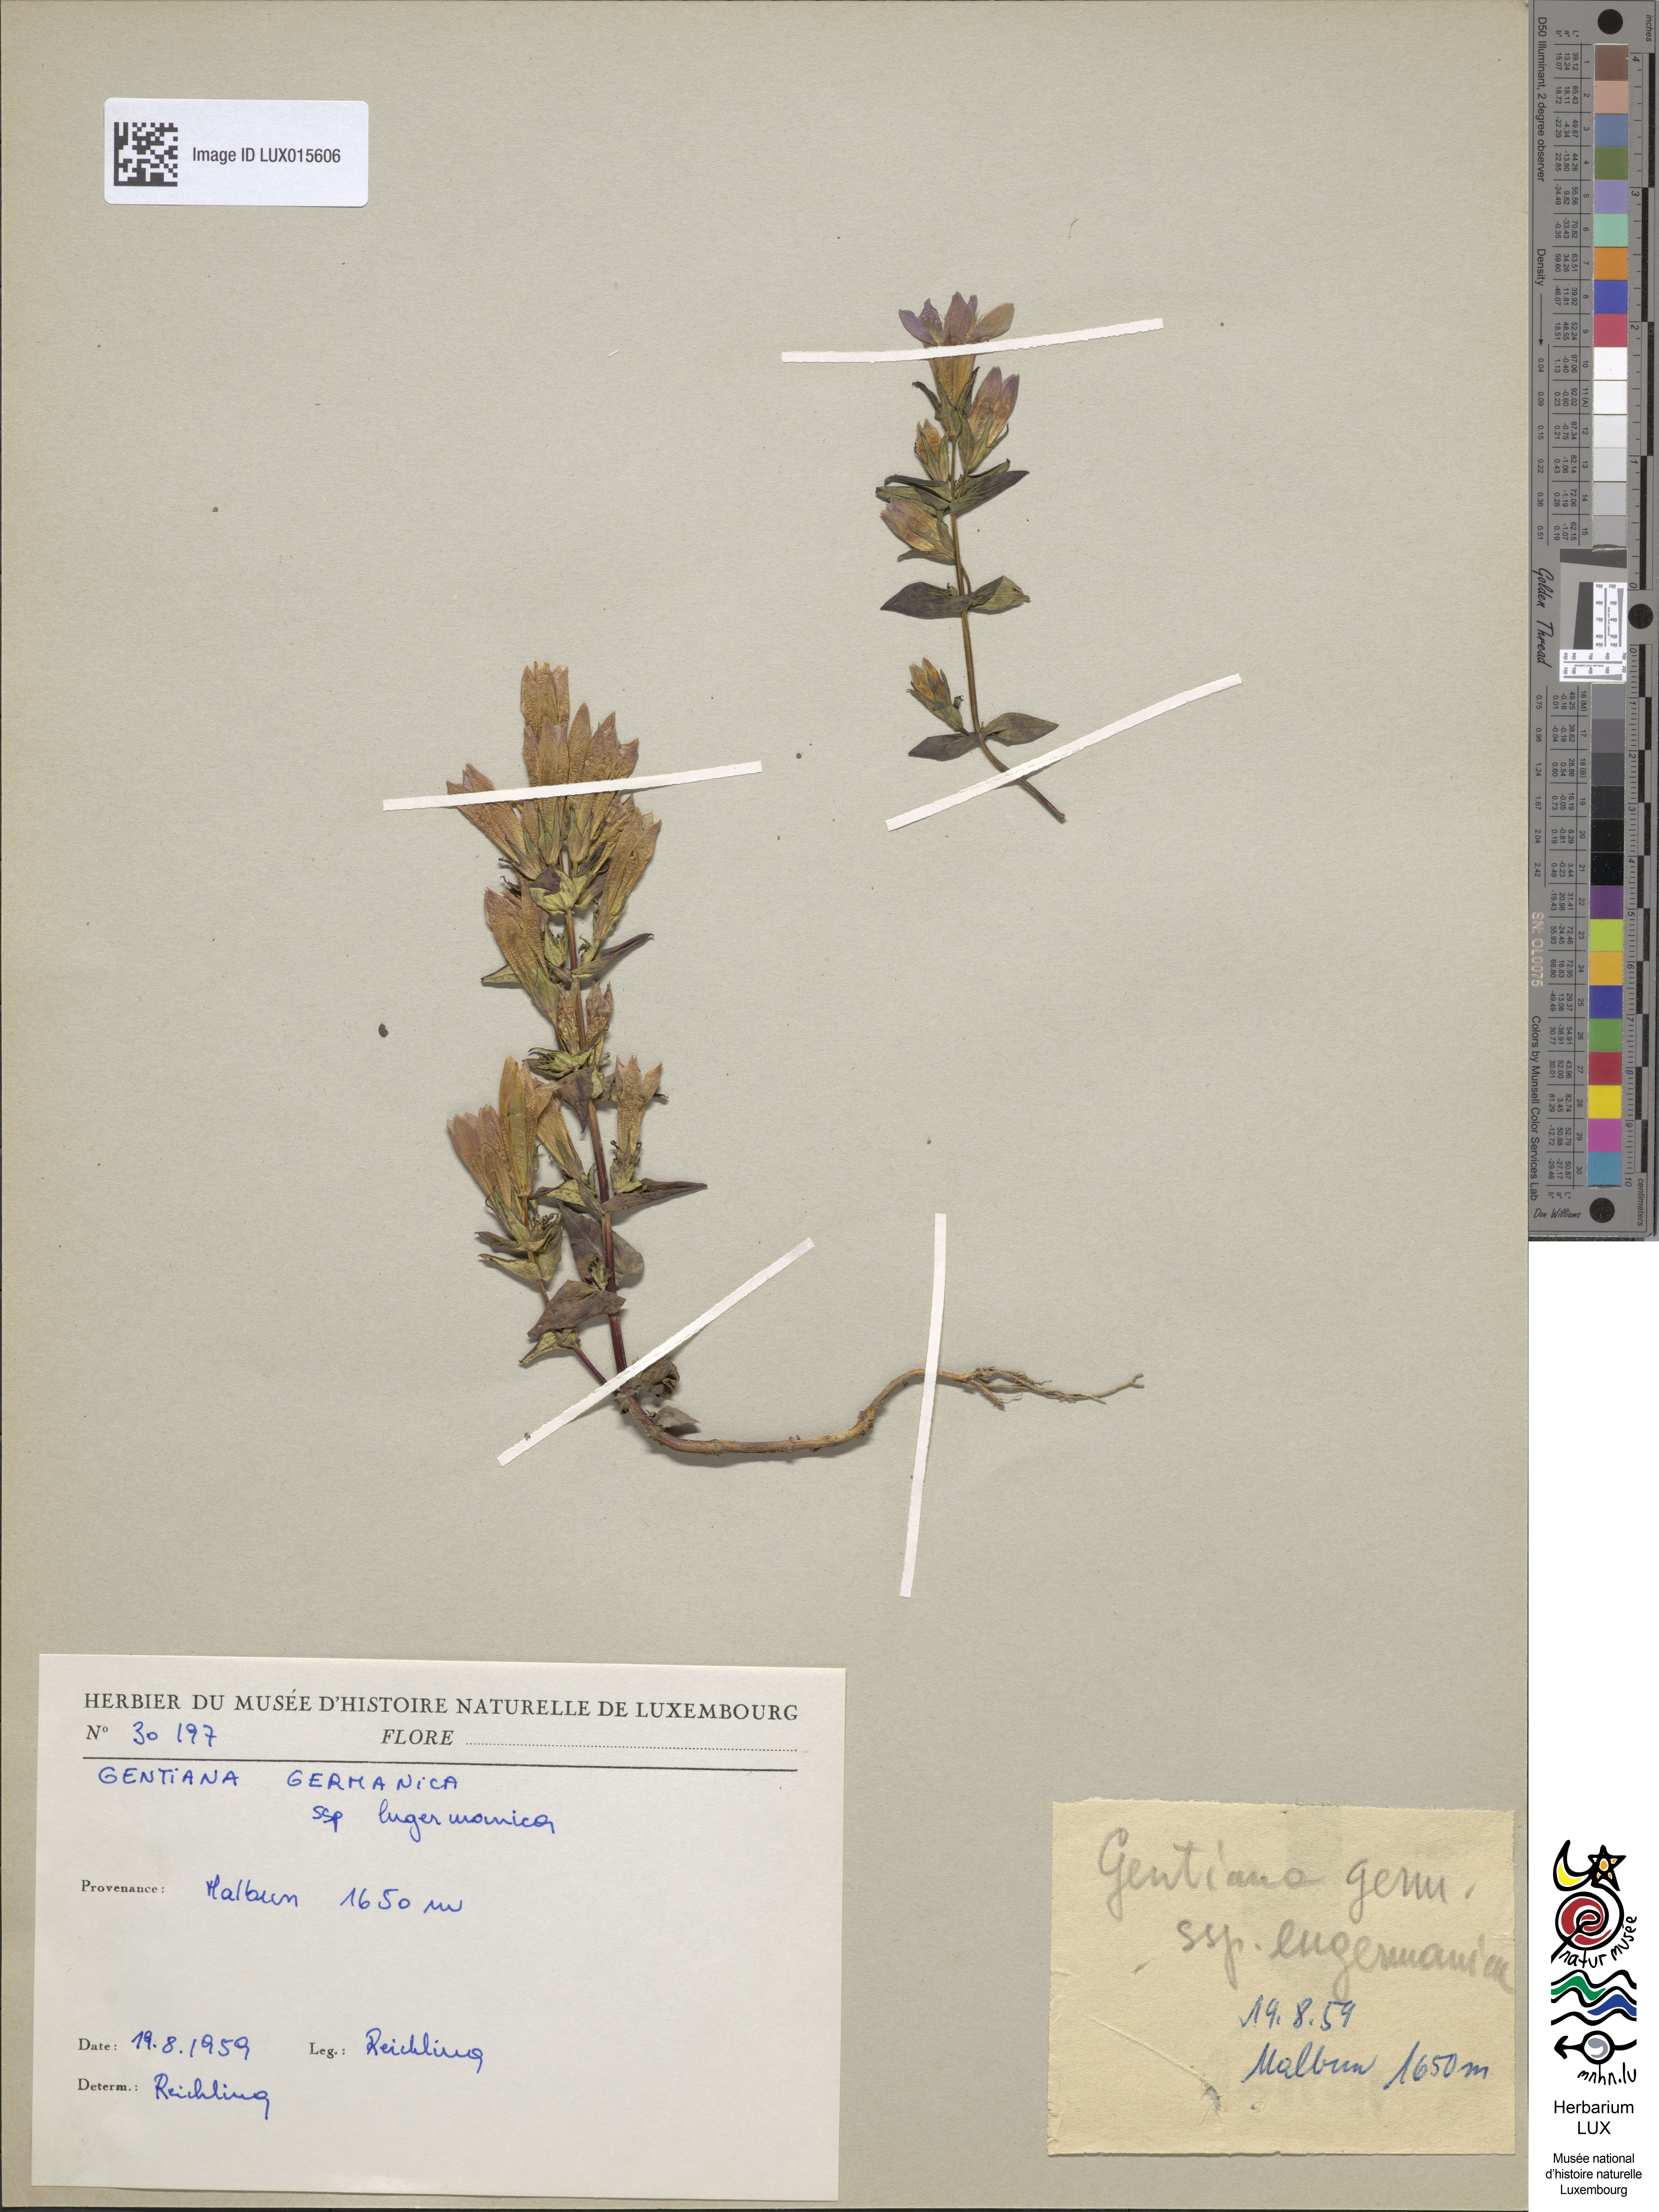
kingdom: Plantae
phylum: Tracheophyta
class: Magnoliopsida
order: Gentianales
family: Gentianaceae
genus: Gentianella
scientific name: Gentianella germanica
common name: Chiltern-gentian
